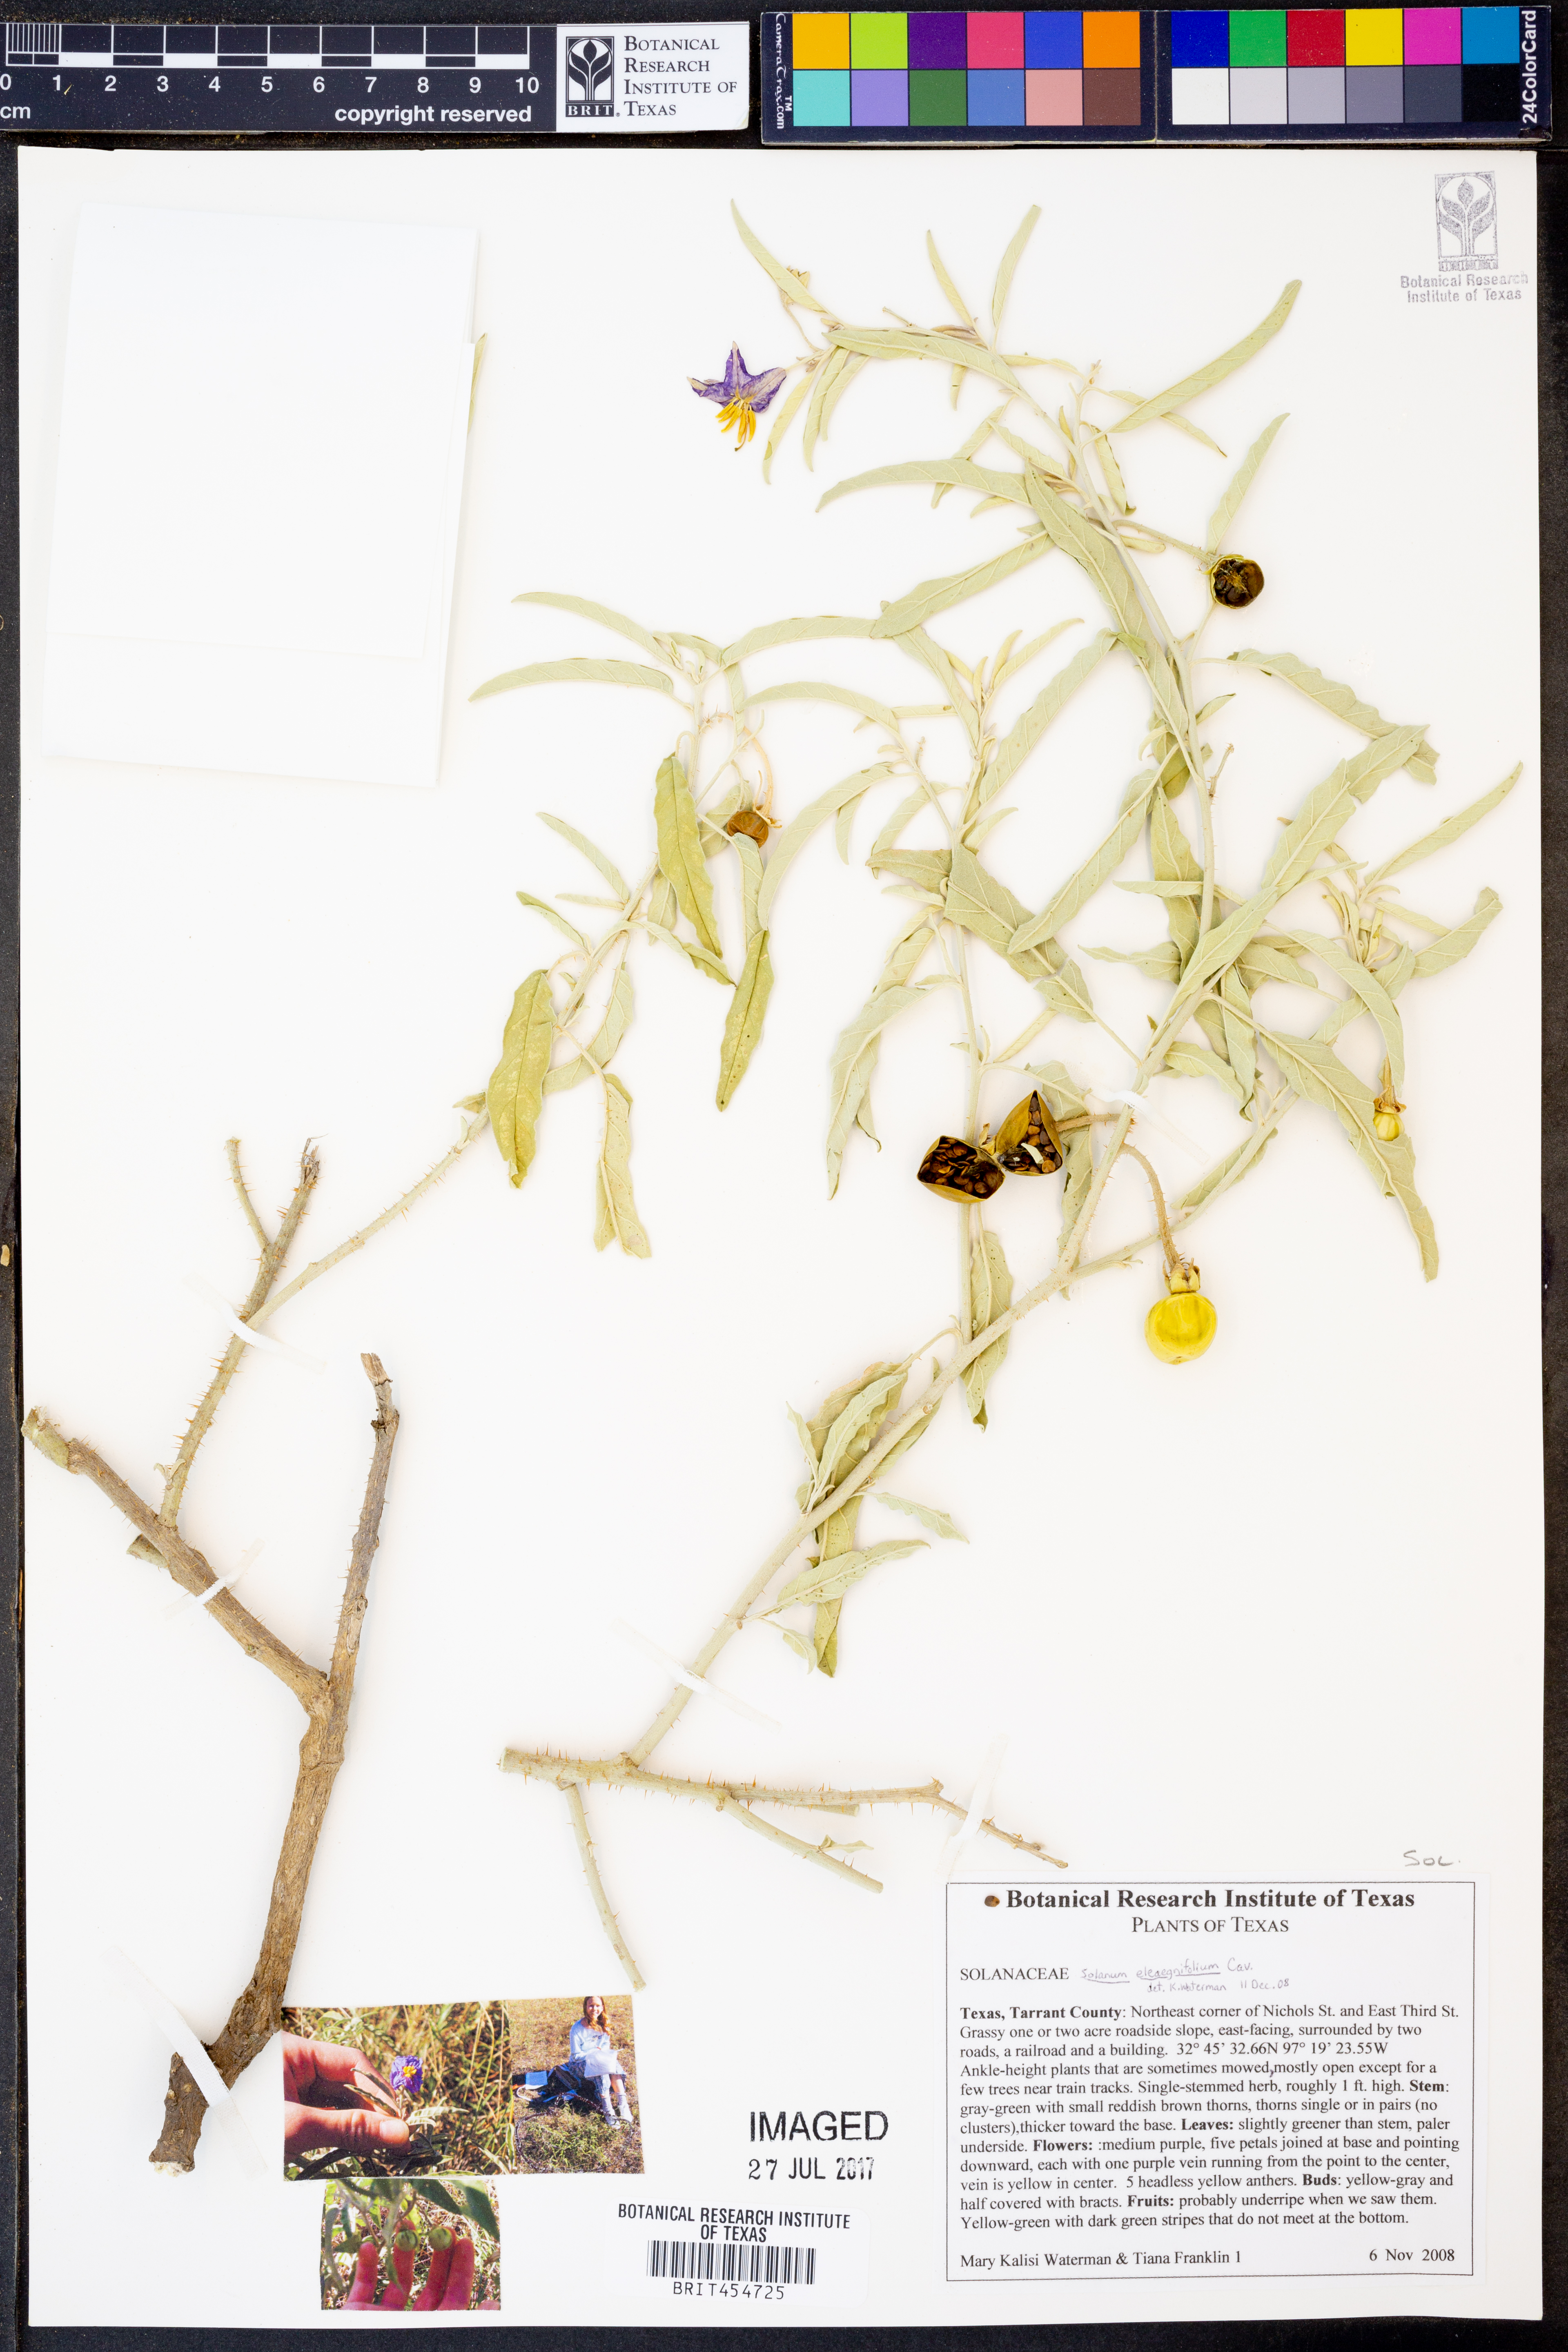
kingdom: Plantae
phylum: Tracheophyta
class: Magnoliopsida
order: Solanales
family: Solanaceae
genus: Solanum
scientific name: Solanum elaeagnifolium
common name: Silverleaf nightshade
